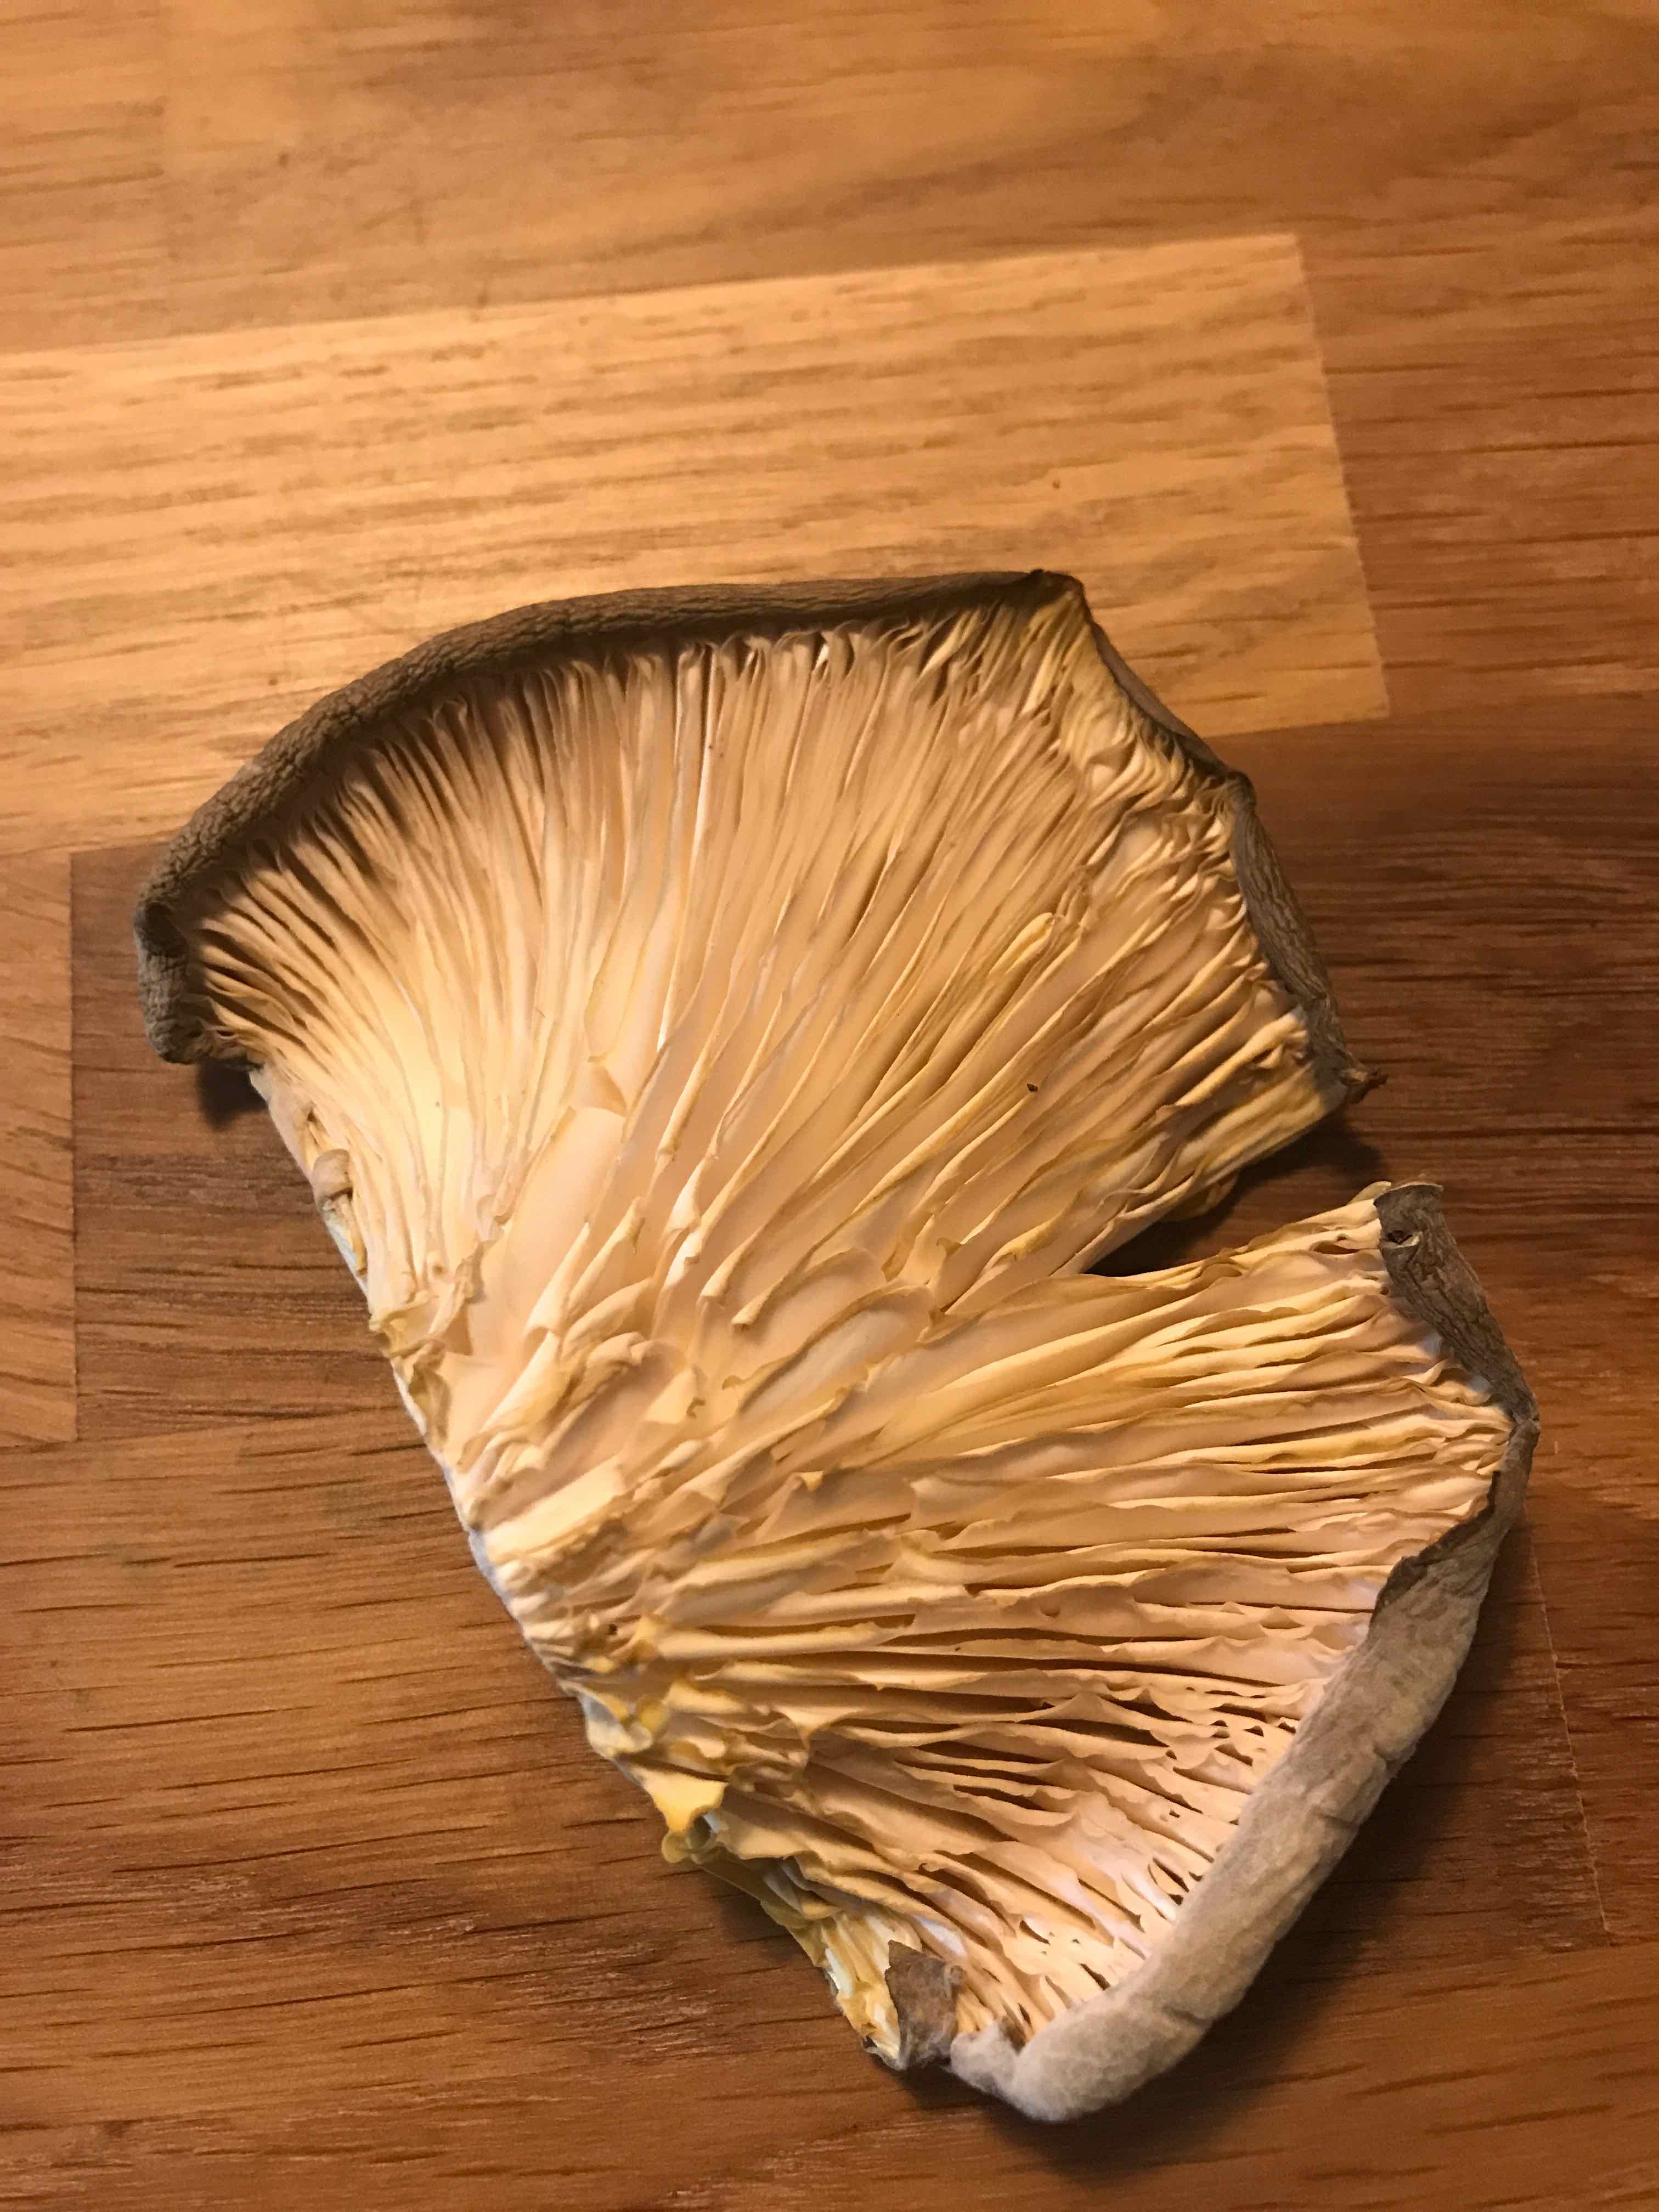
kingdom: Fungi
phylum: Basidiomycota
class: Agaricomycetes
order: Agaricales
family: Pleurotaceae
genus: Pleurotus
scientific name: Pleurotus
